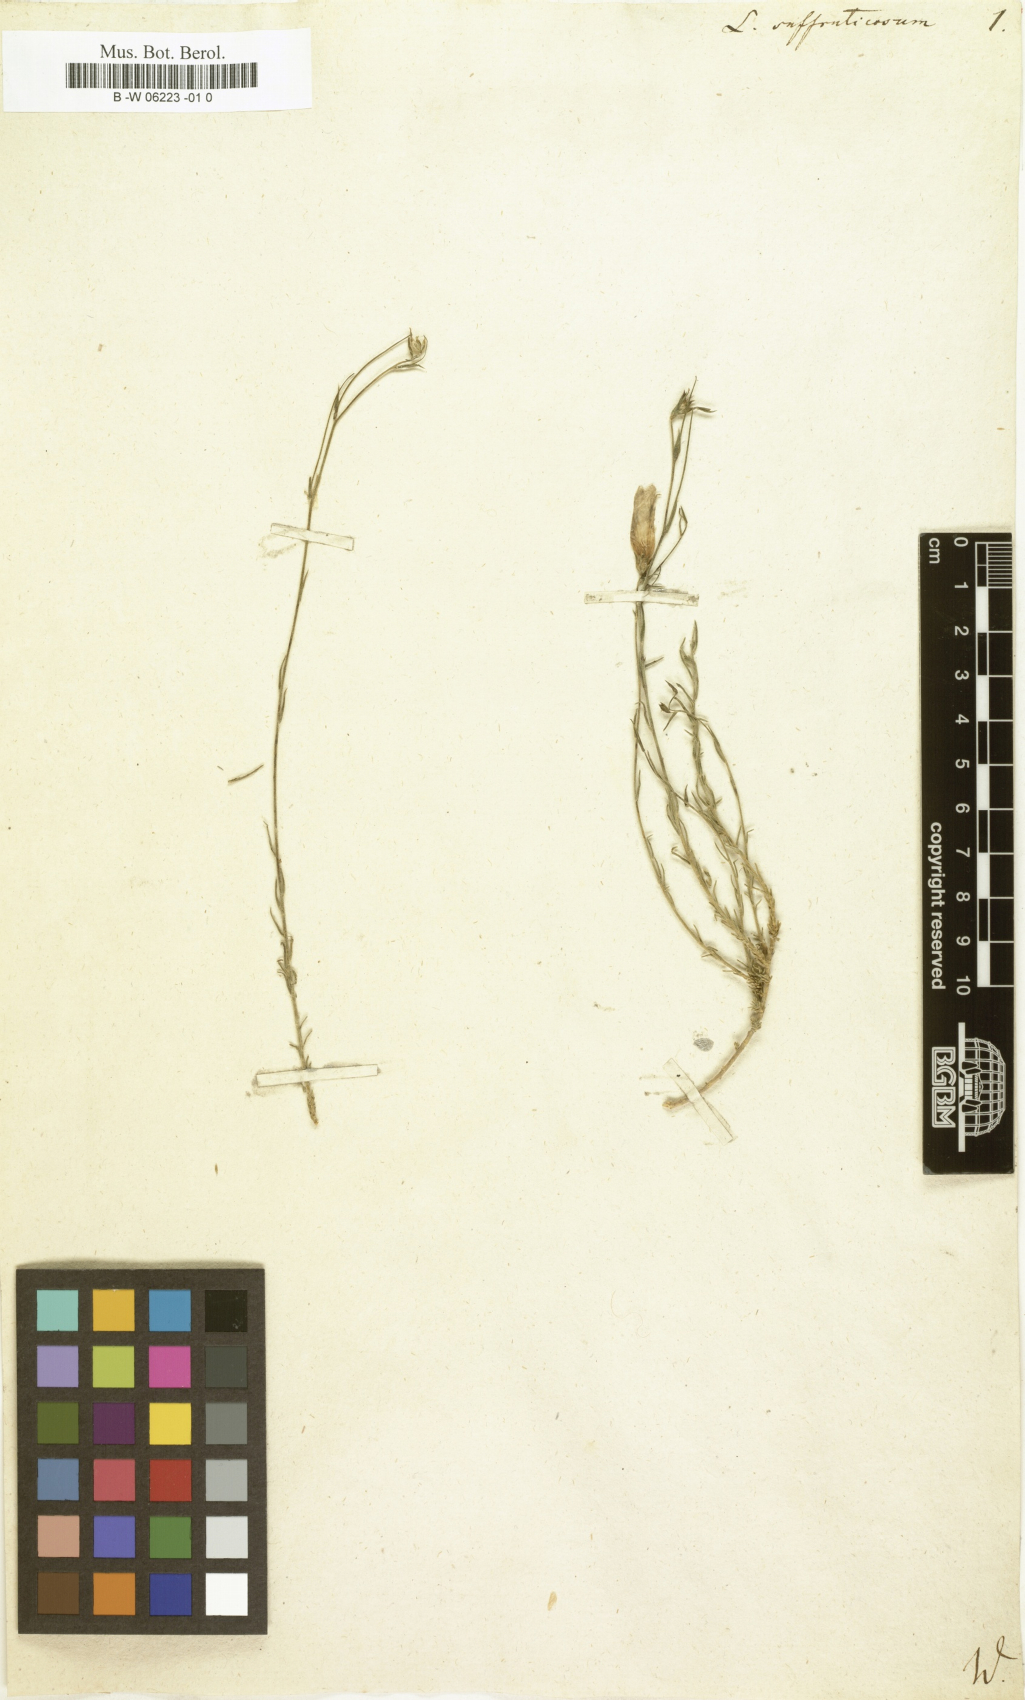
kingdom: Plantae
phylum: Tracheophyta
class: Magnoliopsida
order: Malpighiales
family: Linaceae
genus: Linum
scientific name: Linum
